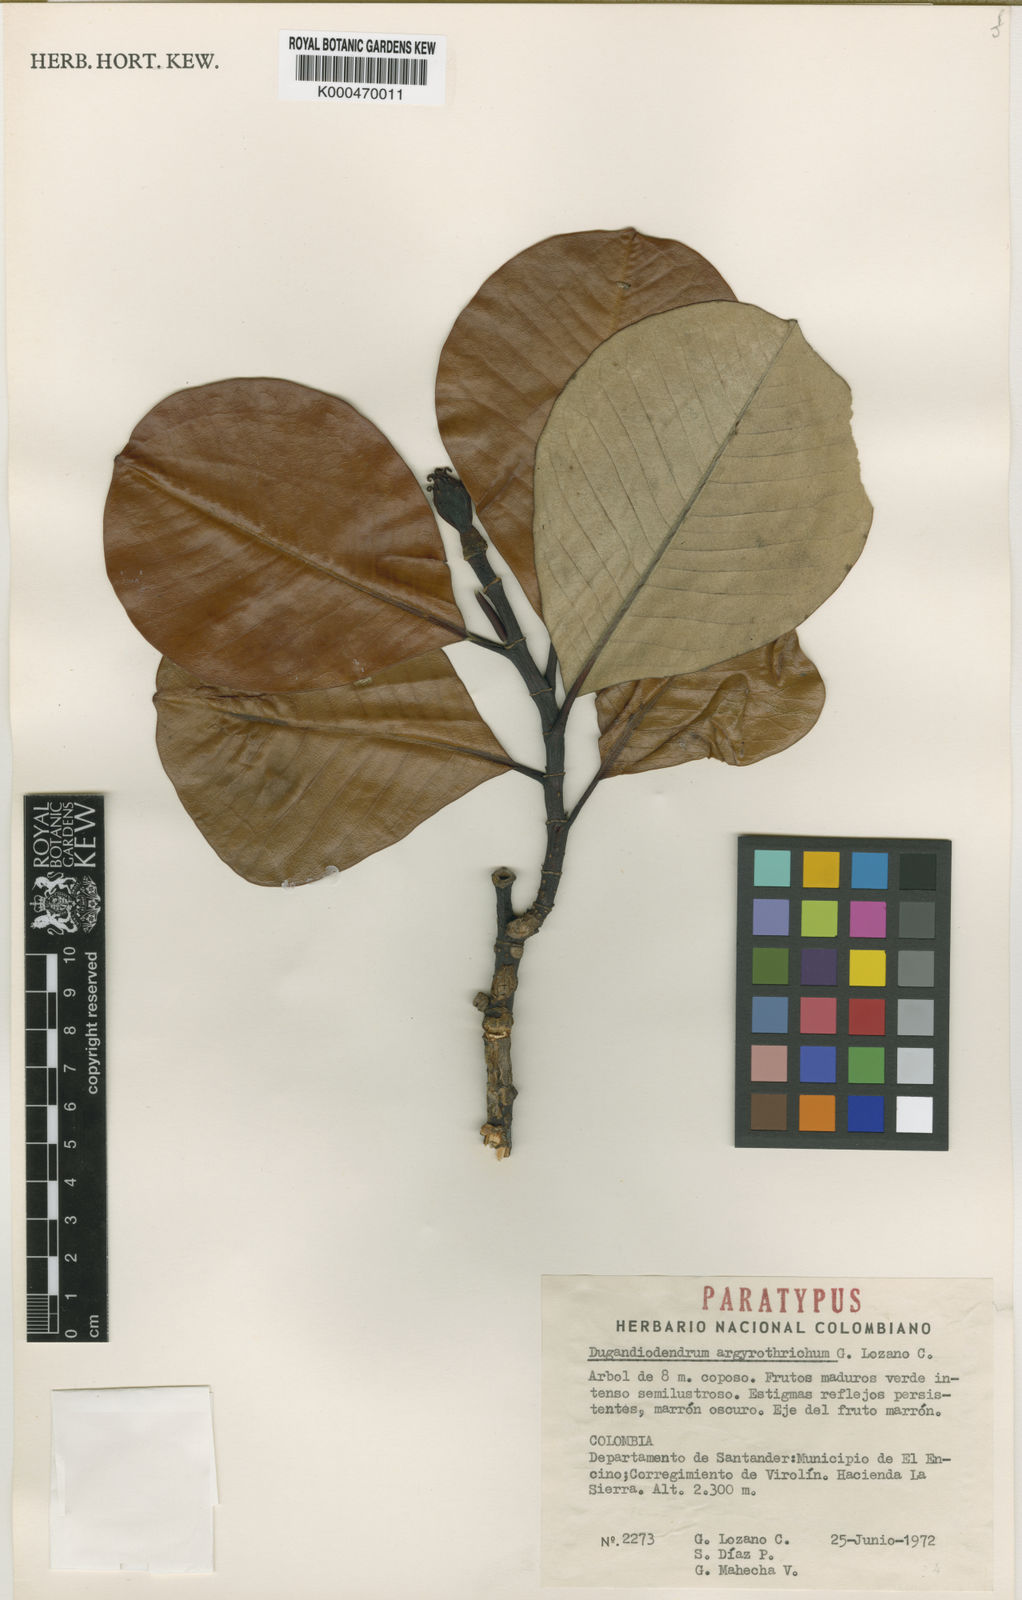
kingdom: Plantae
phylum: Tracheophyta
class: Magnoliopsida
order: Magnoliales
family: Magnoliaceae
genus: Magnolia
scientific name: Magnolia
